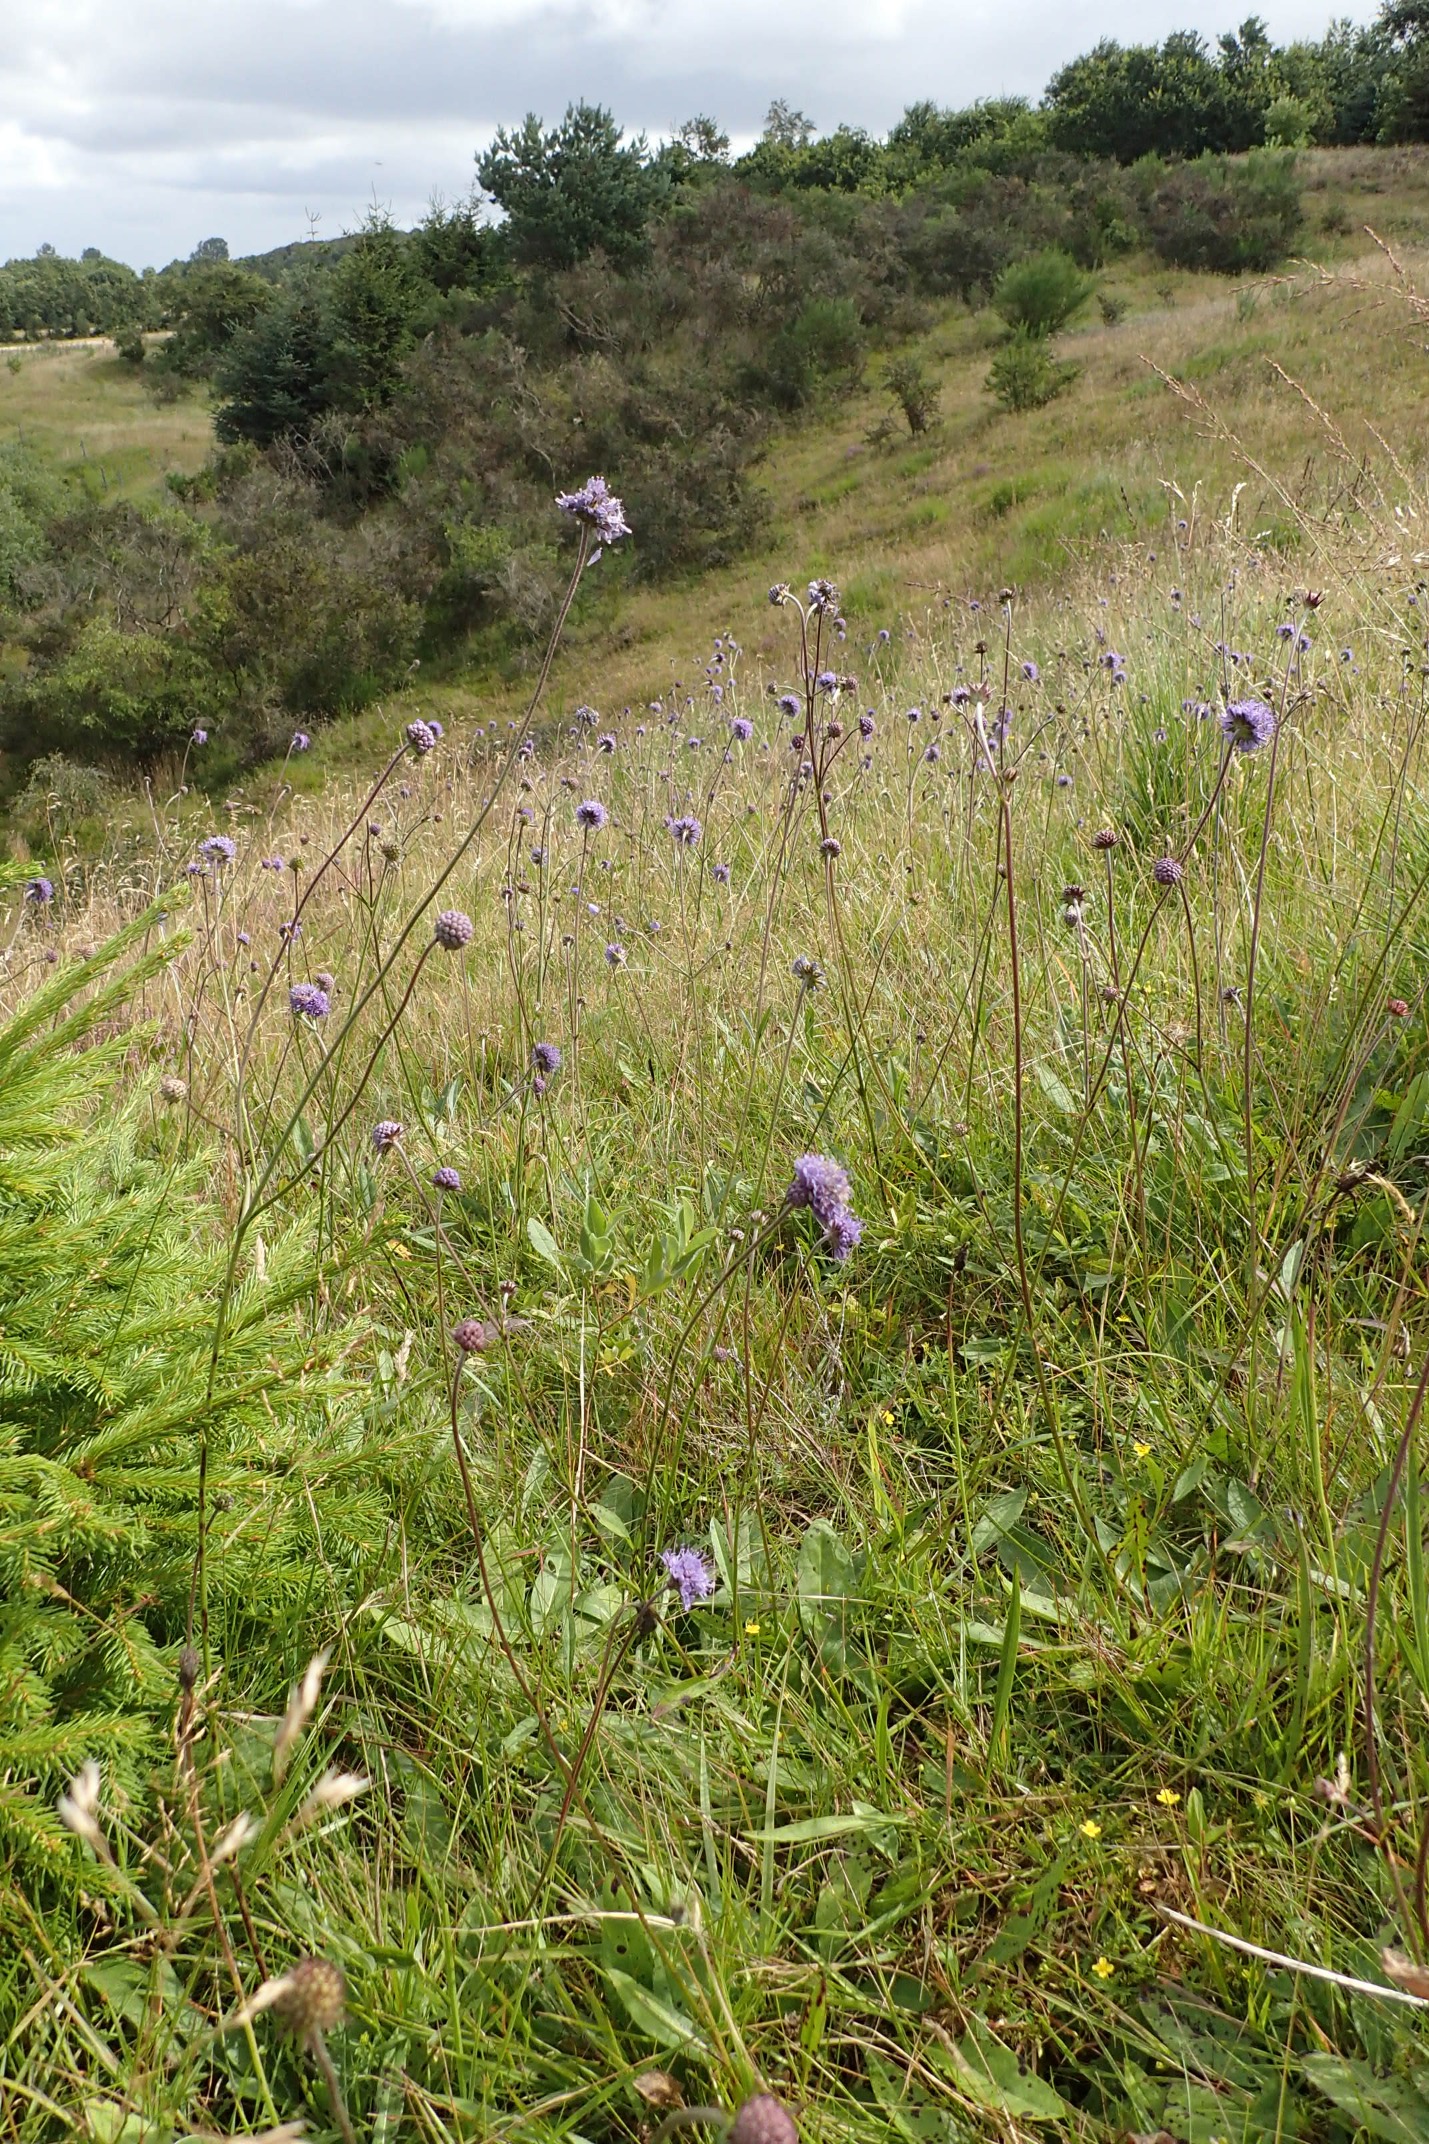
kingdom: Plantae
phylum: Tracheophyta
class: Magnoliopsida
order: Dipsacales
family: Caprifoliaceae
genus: Succisa
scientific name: Succisa pratensis
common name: Djævelsbid
